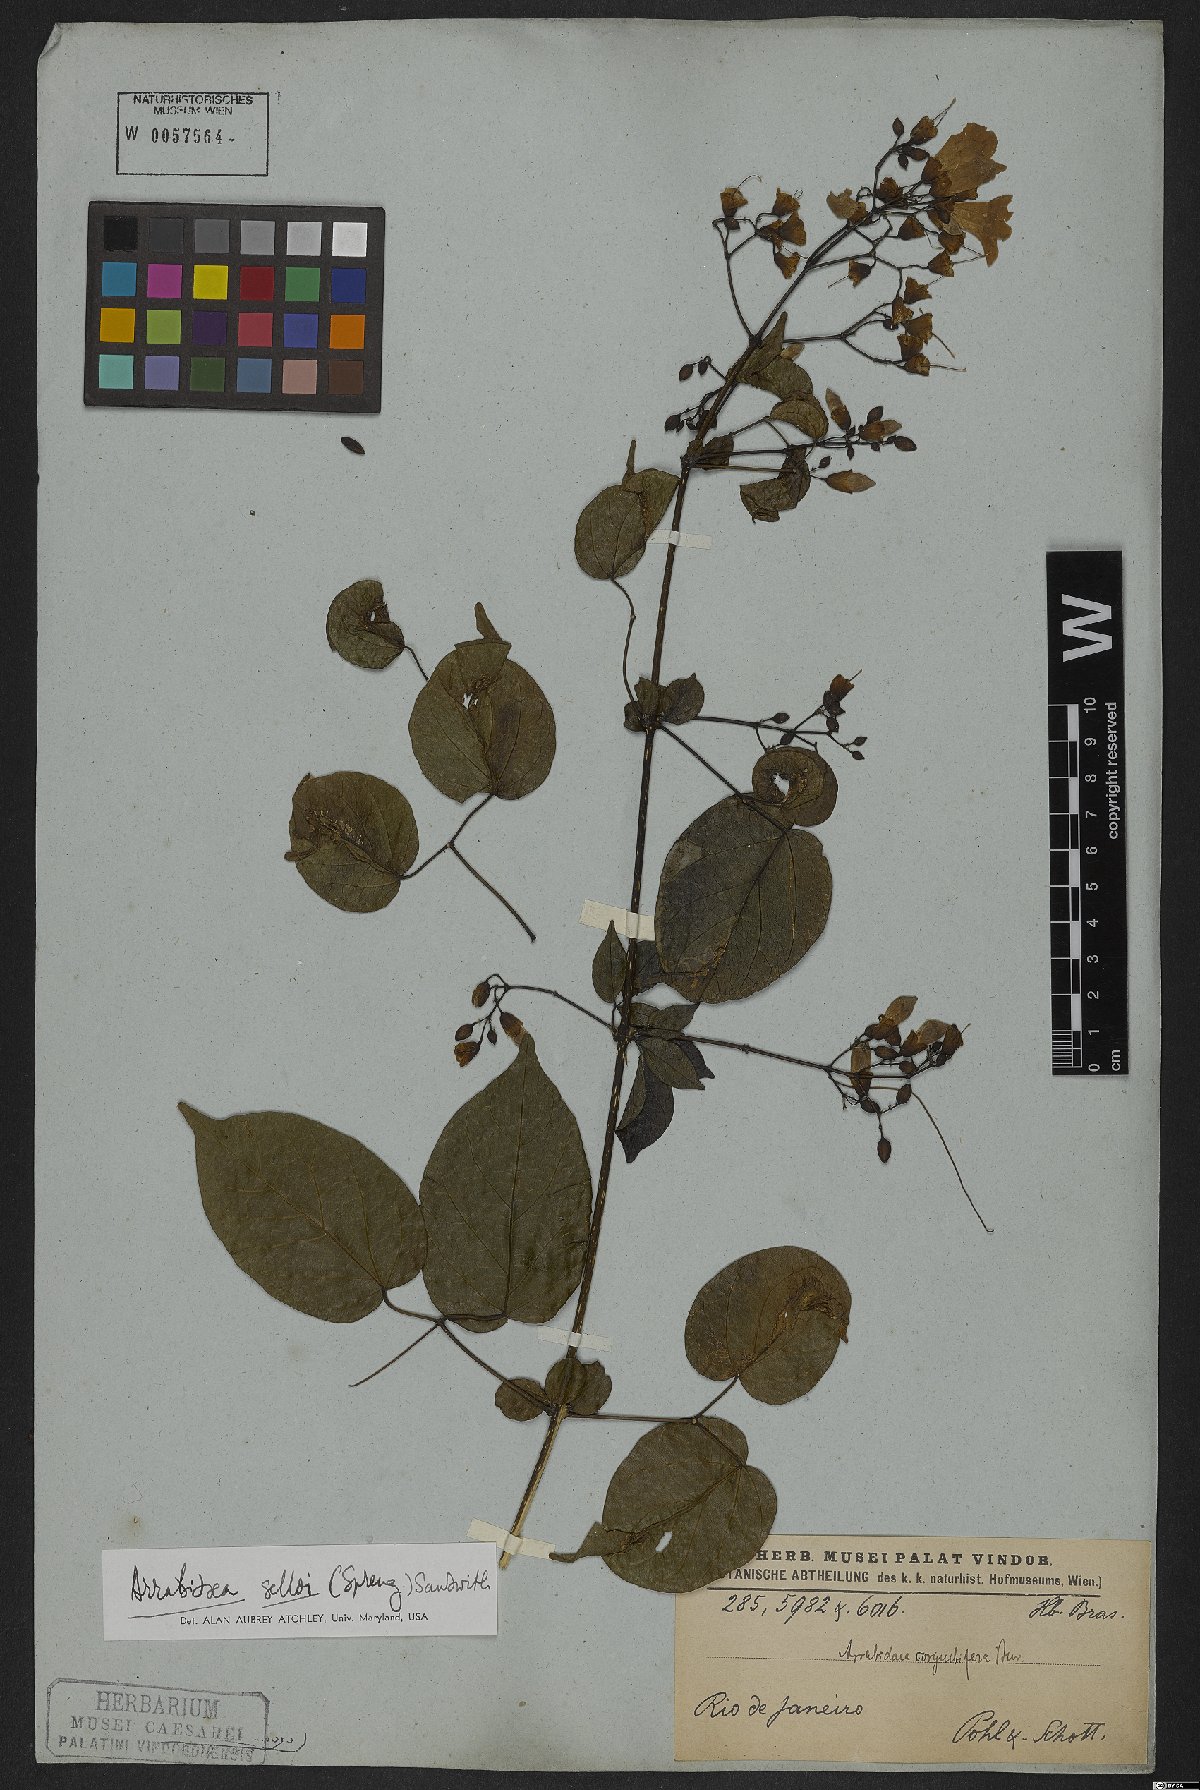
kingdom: Plantae
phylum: Tracheophyta
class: Magnoliopsida
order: Lamiales
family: Bignoniaceae
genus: Tanaecium
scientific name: Tanaecium selloi
